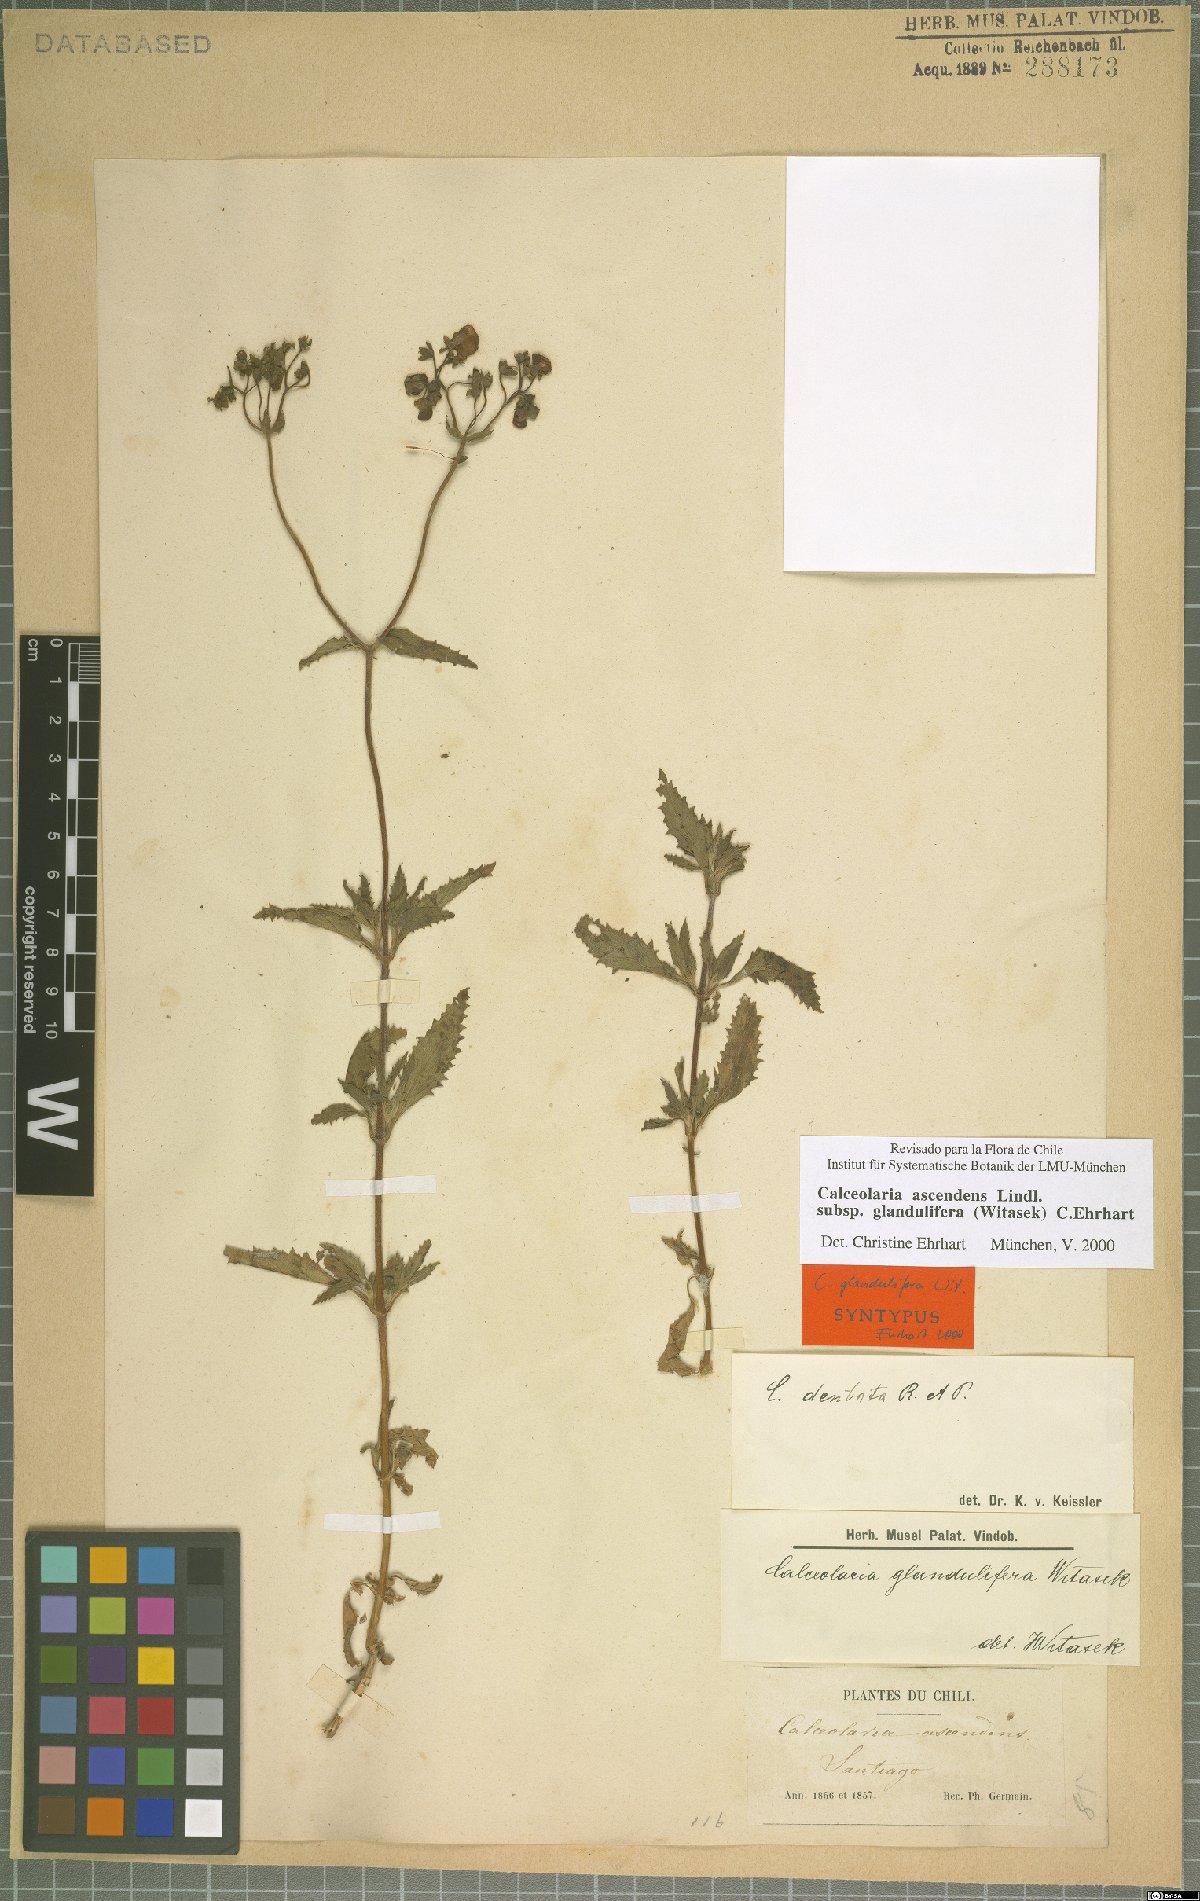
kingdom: Plantae
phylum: Tracheophyta
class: Magnoliopsida
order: Lamiales
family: Calceolariaceae
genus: Calceolaria
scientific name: Calceolaria ascendens
